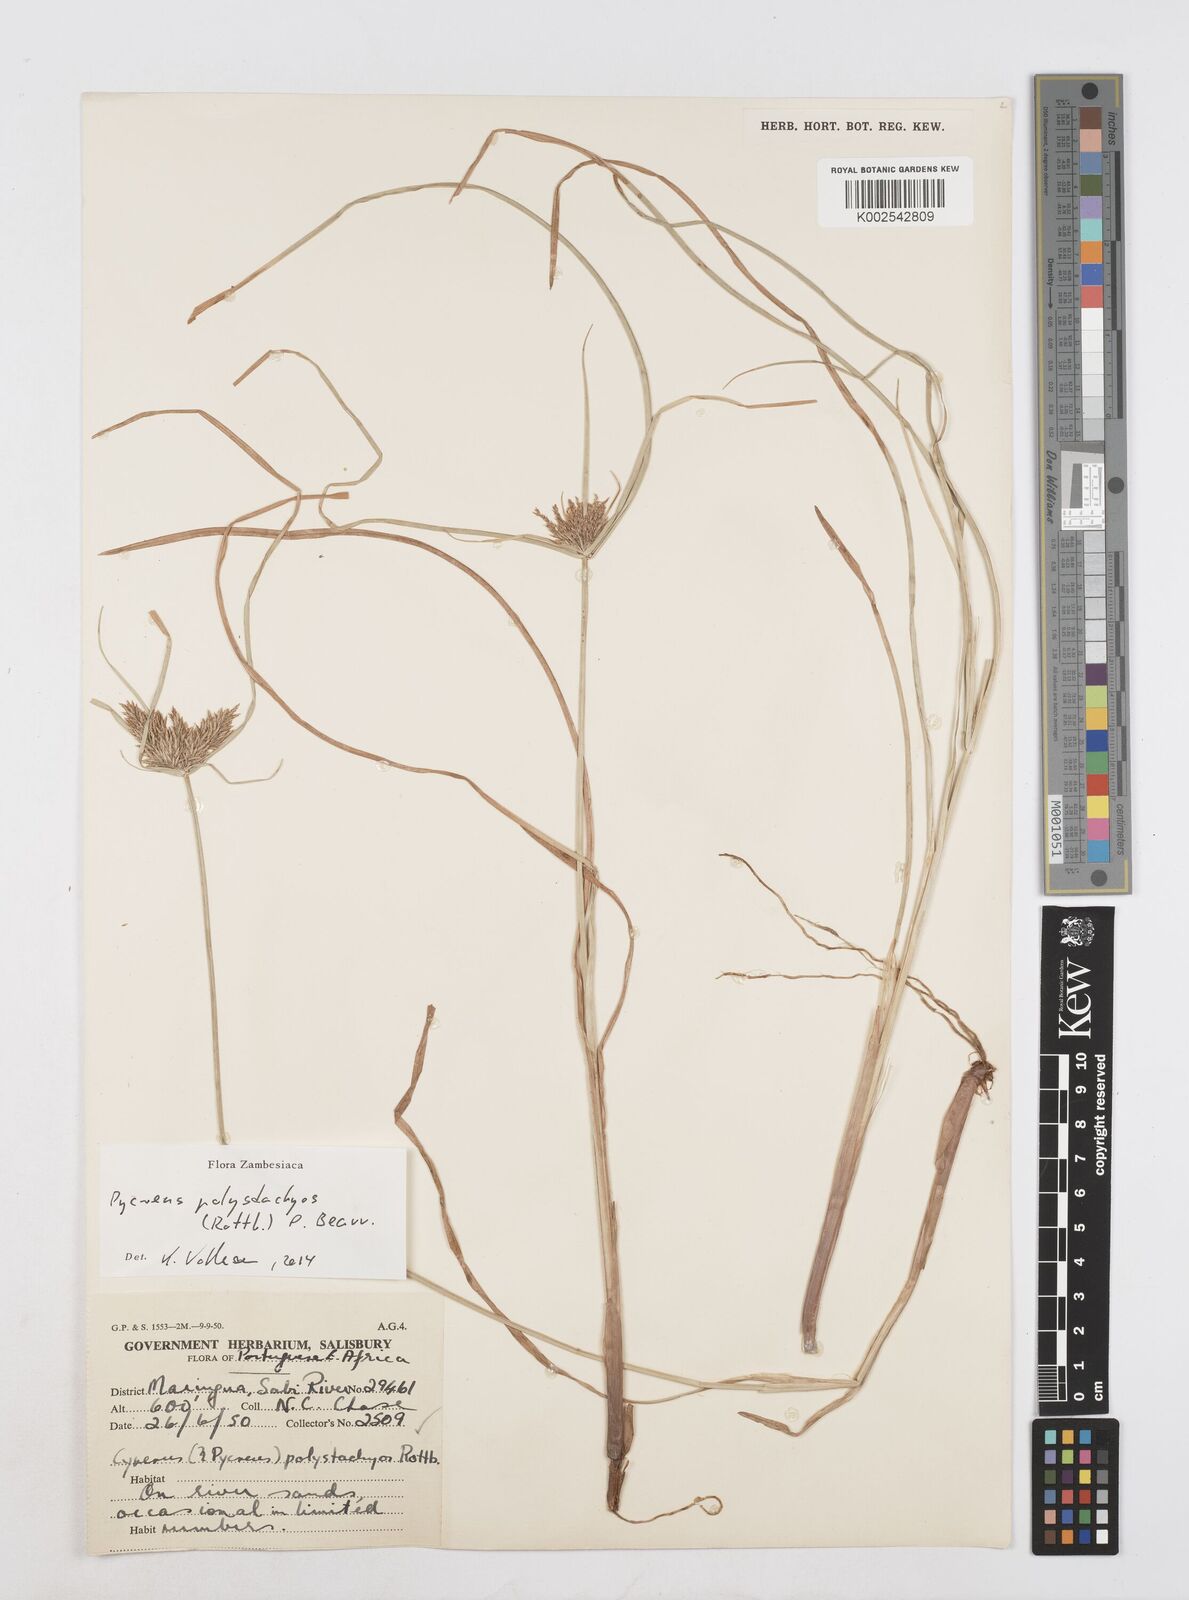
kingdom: Plantae
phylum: Tracheophyta
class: Liliopsida
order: Poales
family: Cyperaceae
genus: Cyperus
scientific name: Cyperus polystachyos
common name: Bunchy flat sedge
